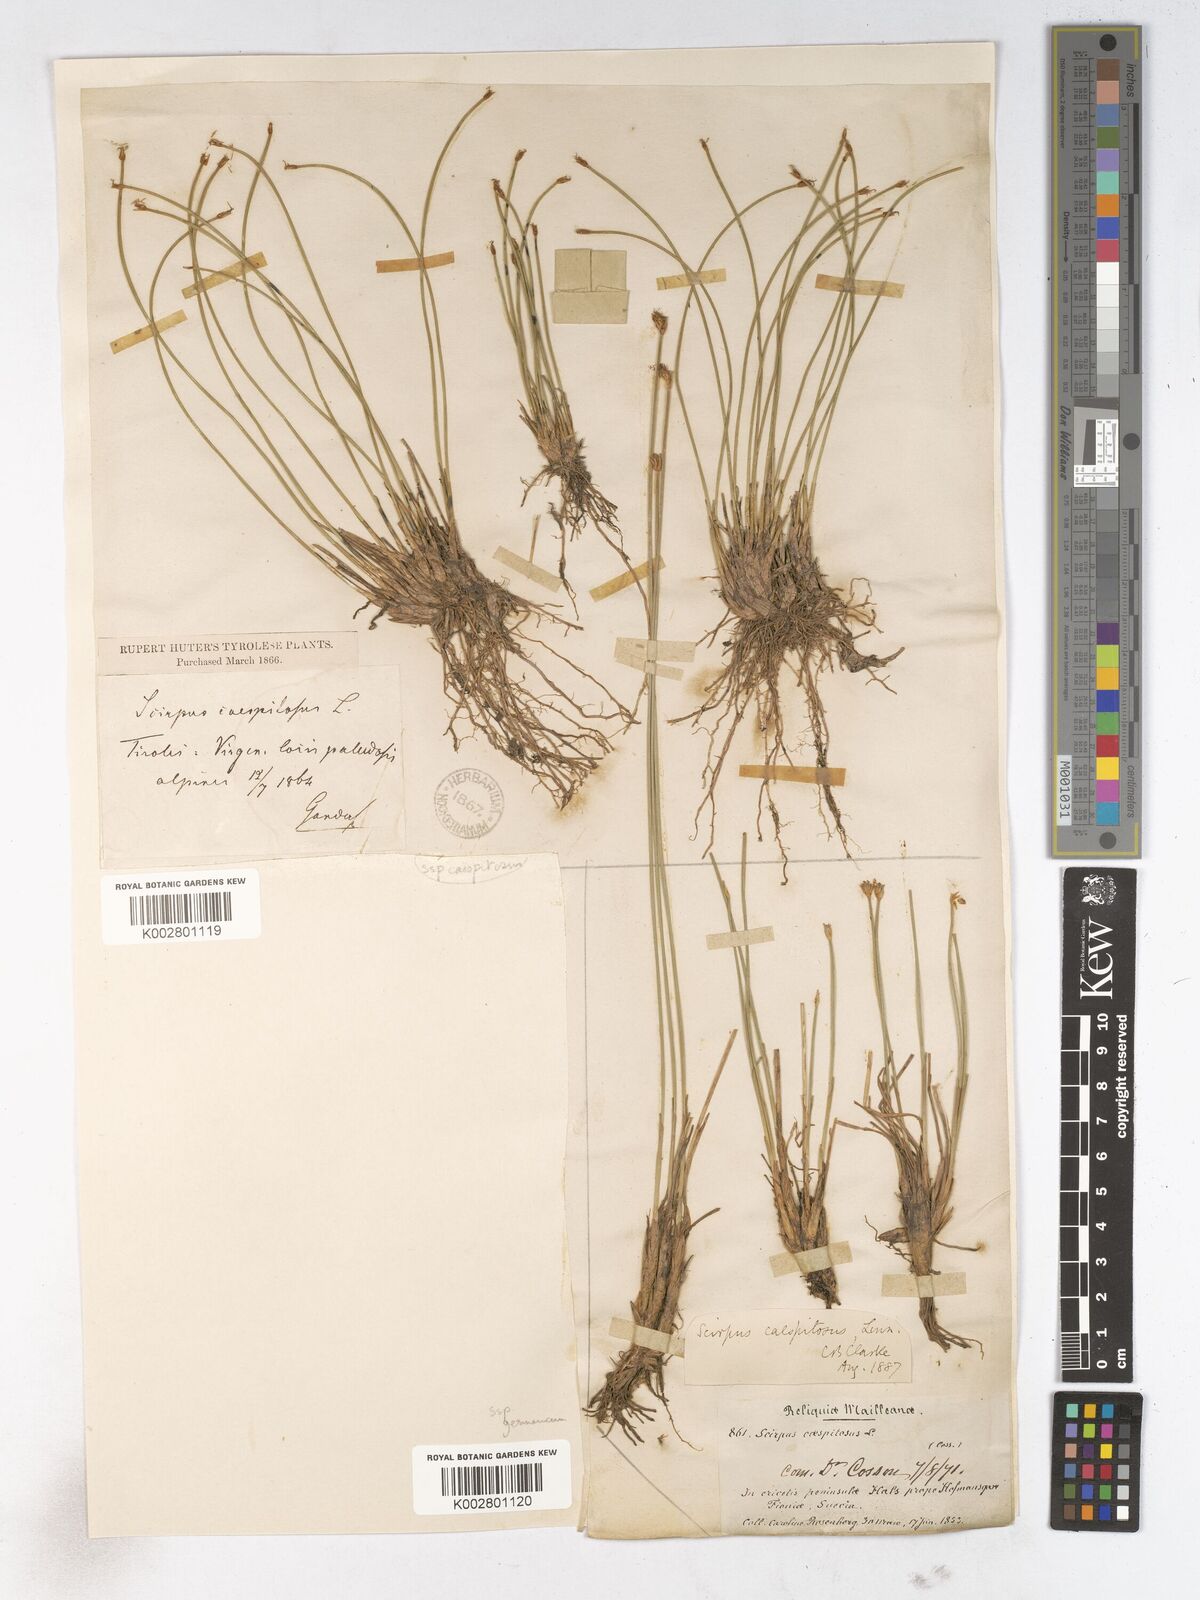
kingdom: Plantae
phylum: Tracheophyta
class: Liliopsida
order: Poales
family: Cyperaceae
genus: Trichophorum
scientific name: Trichophorum cespitosum
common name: Cespitose bulrush
